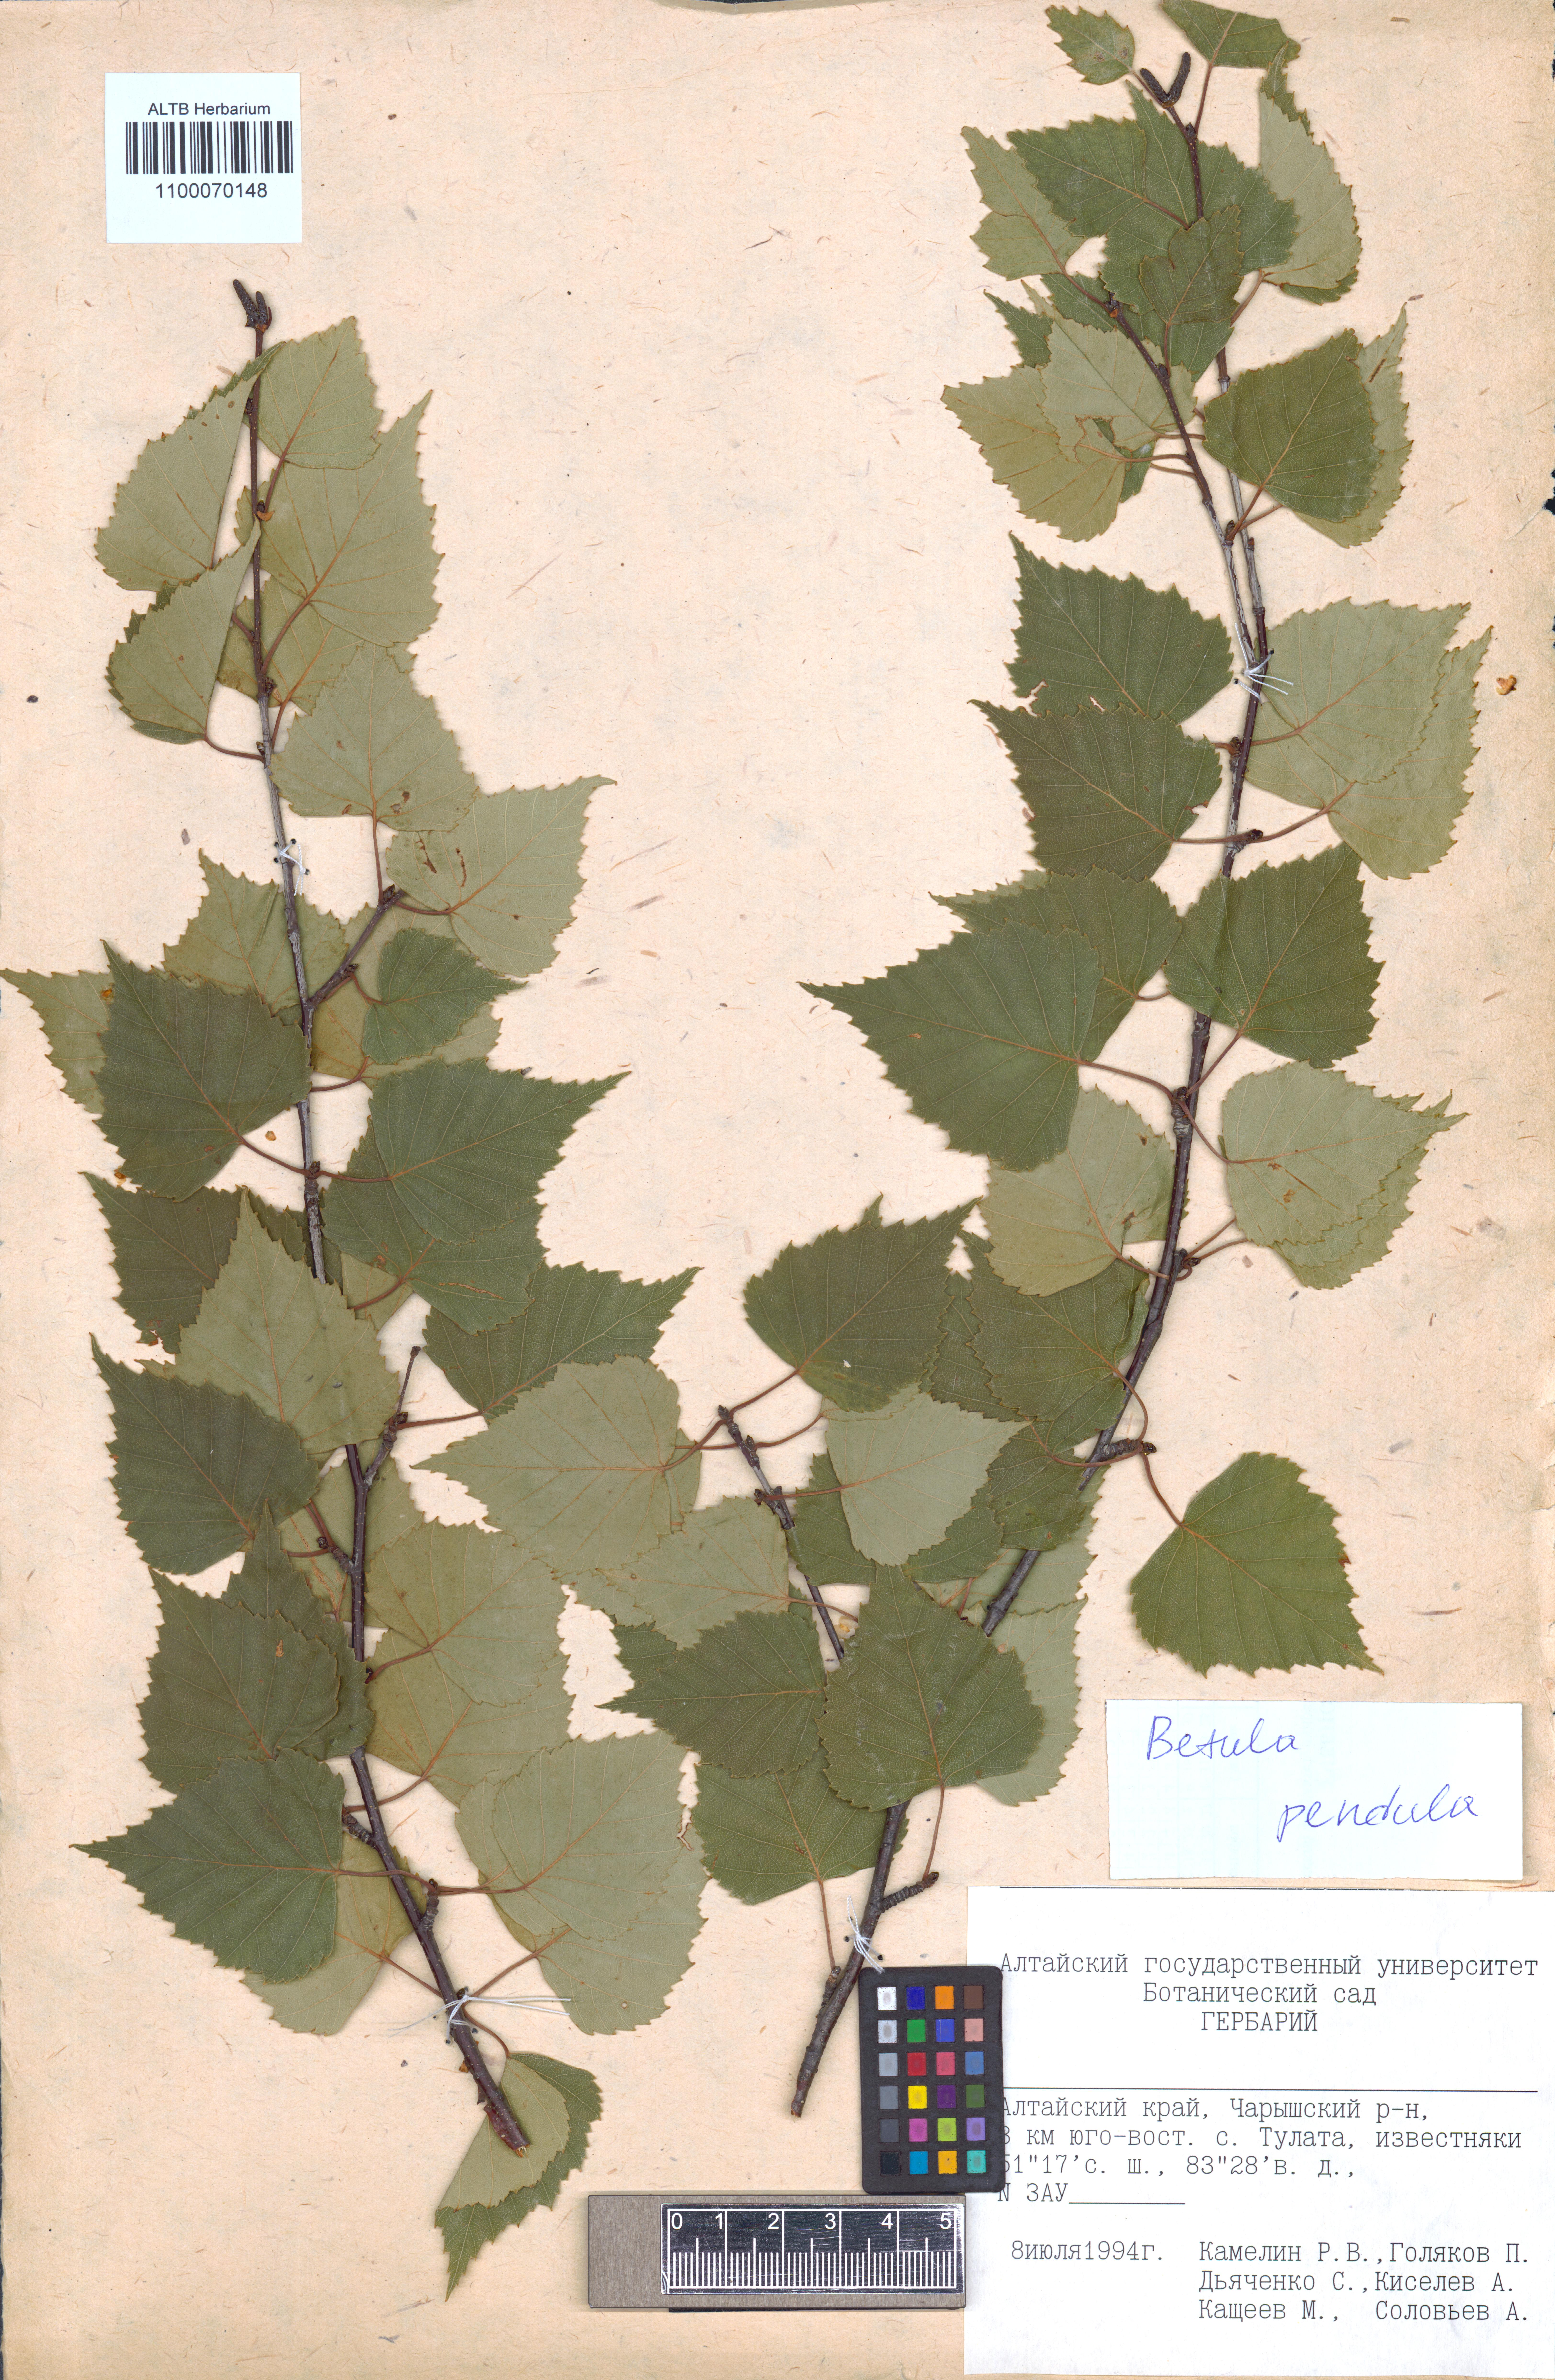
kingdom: Plantae
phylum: Tracheophyta
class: Magnoliopsida
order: Fagales
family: Betulaceae
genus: Betula
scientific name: Betula pendula
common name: Silver birch
